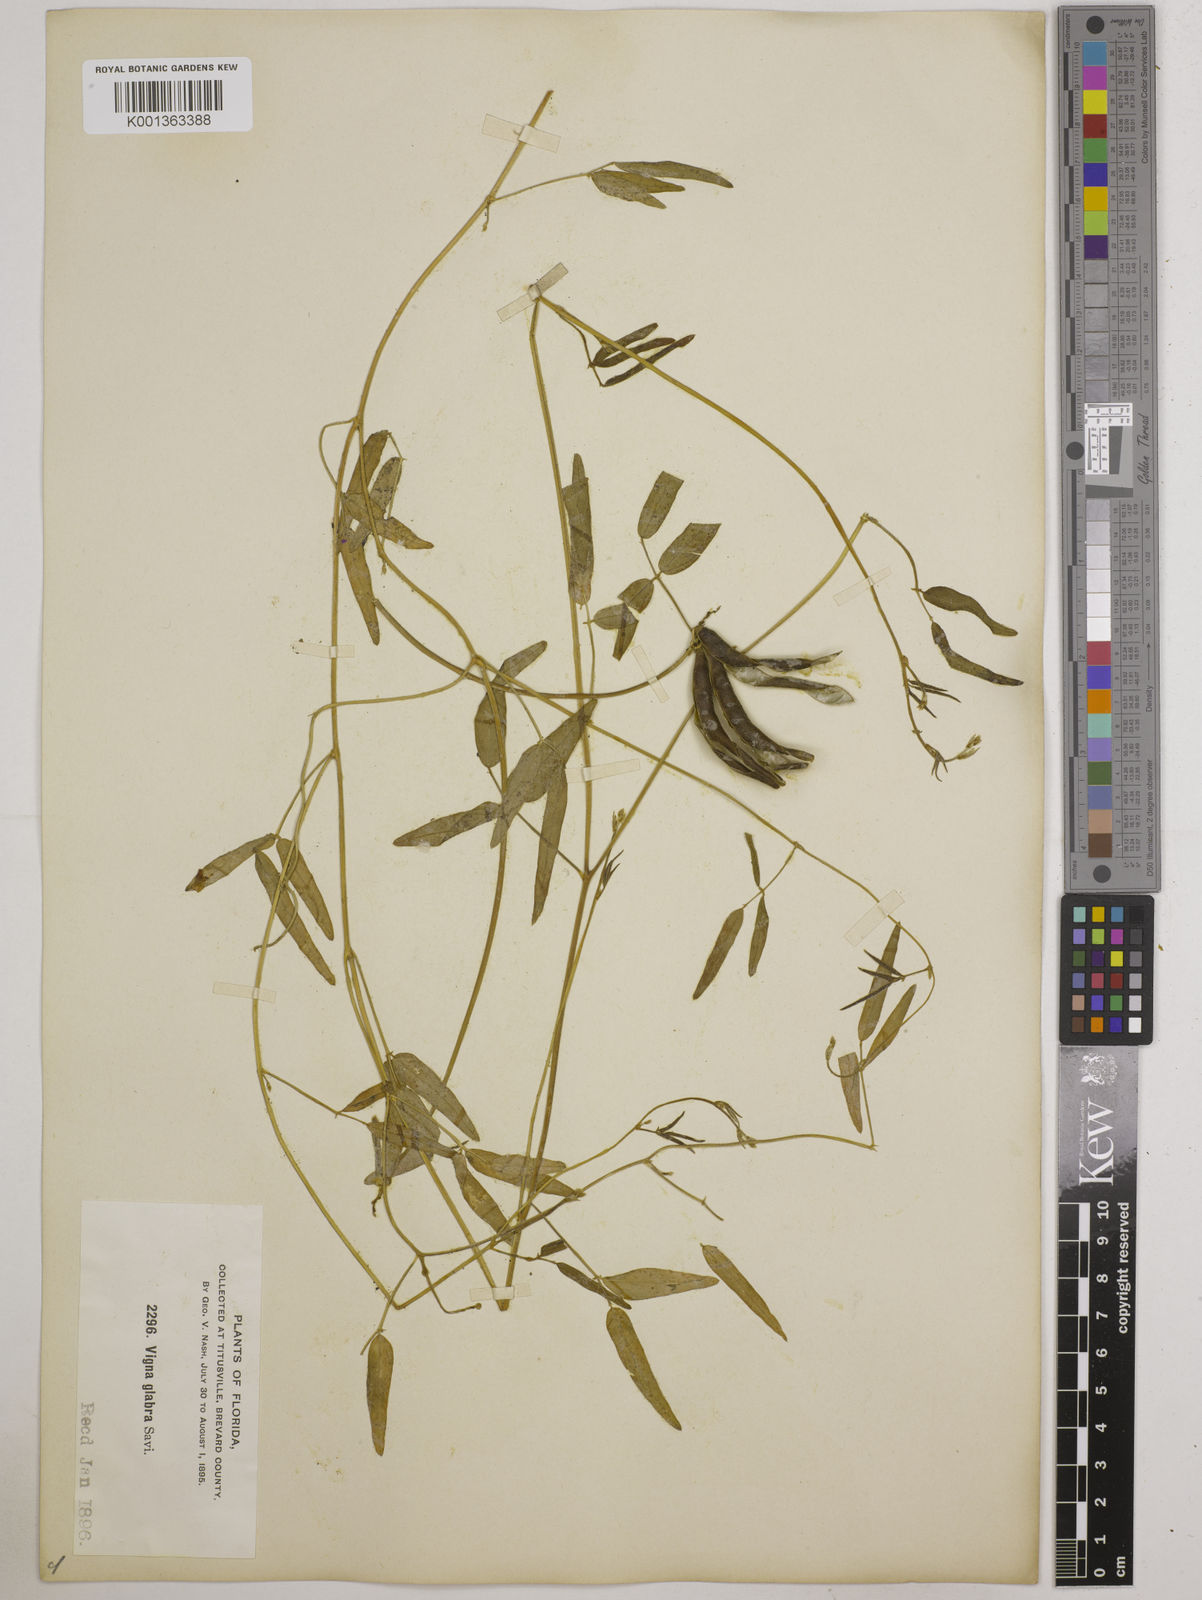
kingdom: Plantae
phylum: Tracheophyta
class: Magnoliopsida
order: Fabales
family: Fabaceae
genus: Vigna
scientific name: Vigna luteola
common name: Hairypod cowpea
